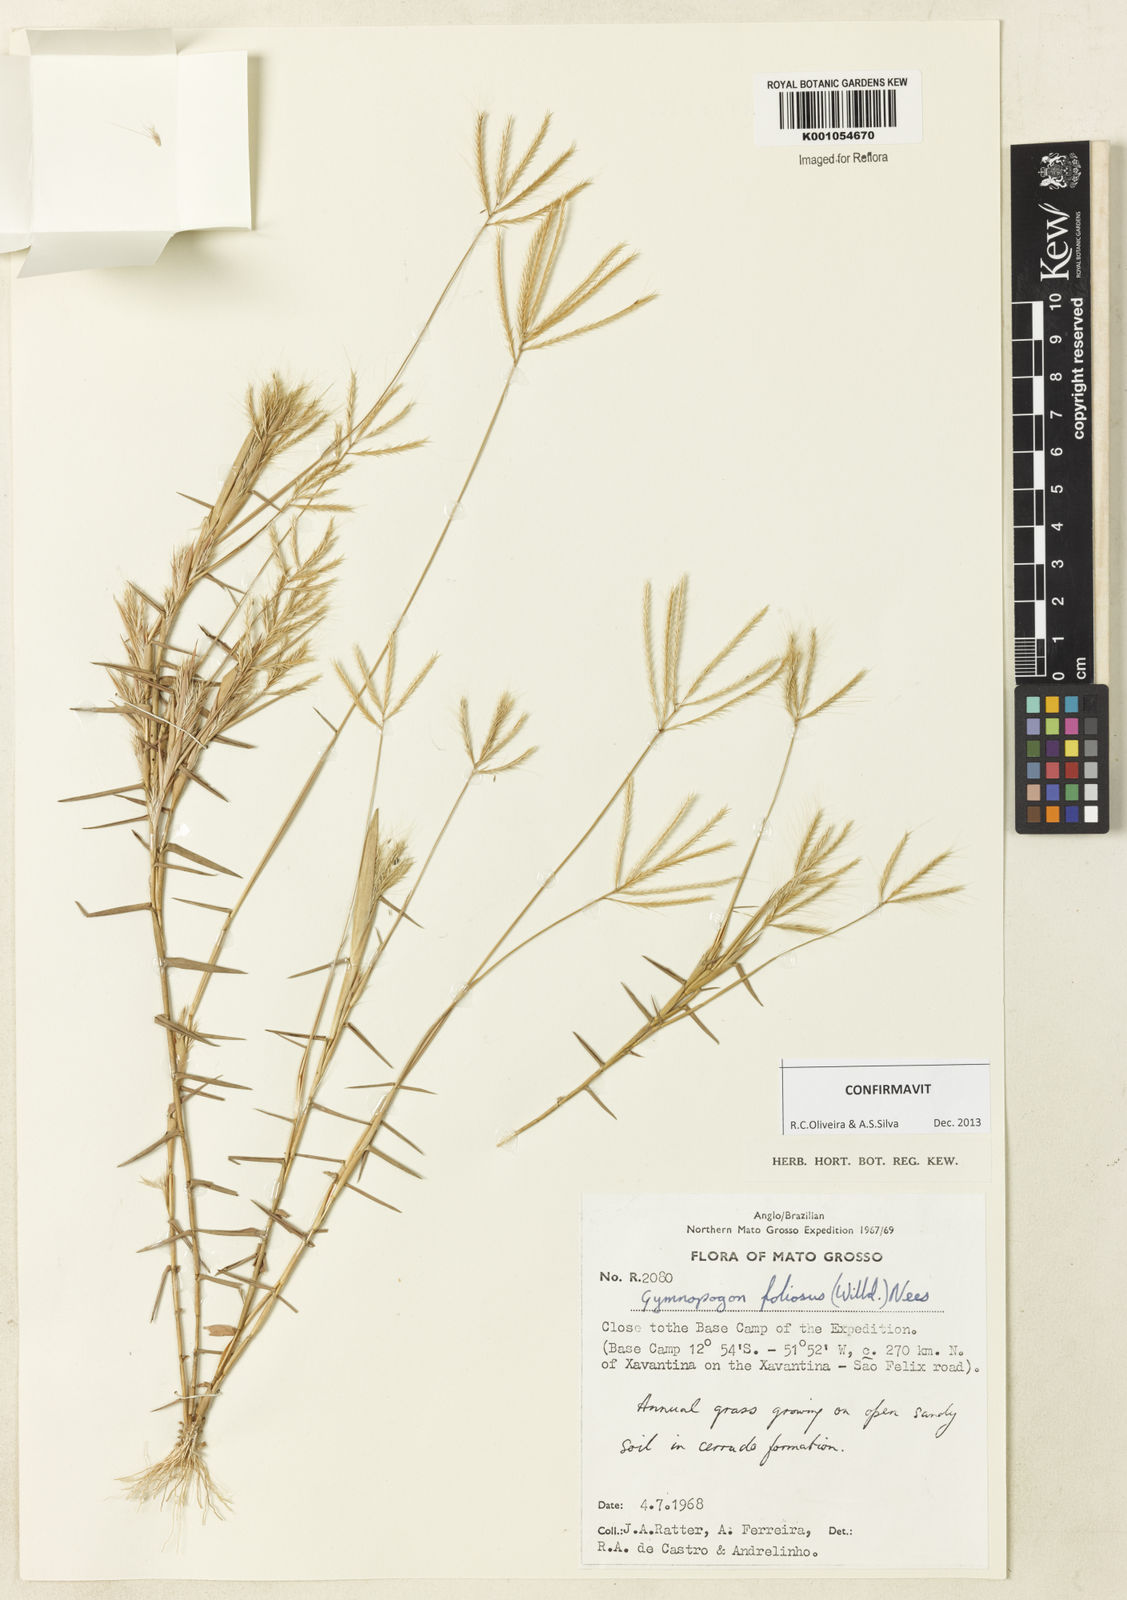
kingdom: Plantae
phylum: Tracheophyta
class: Liliopsida
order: Poales
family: Poaceae
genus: Gymnopogon
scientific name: Gymnopogon foliosus
